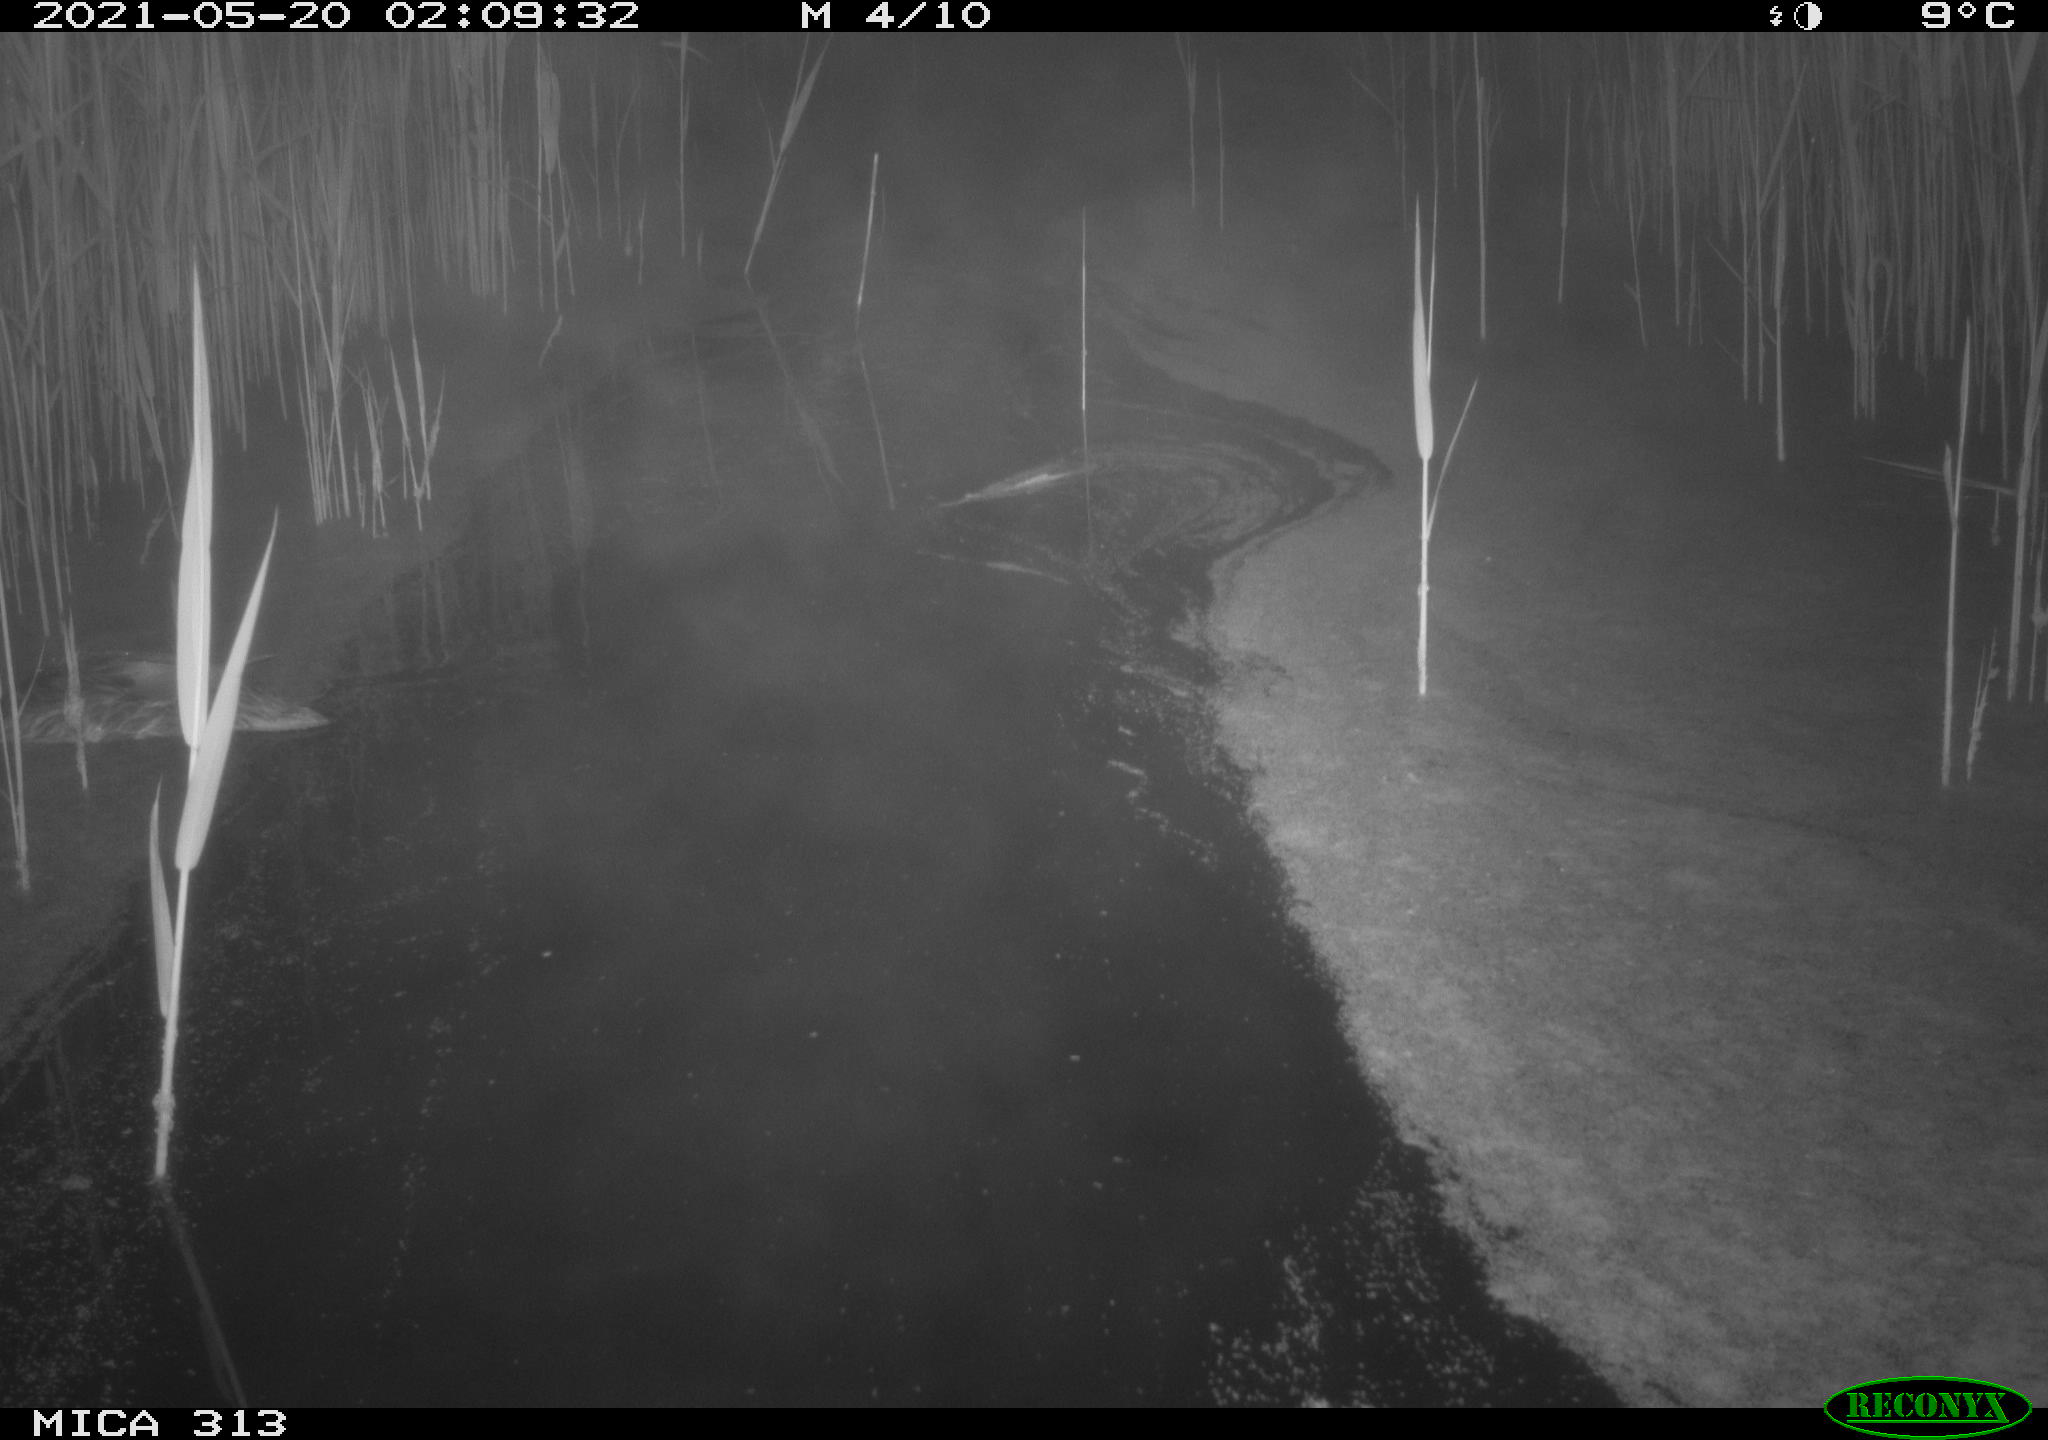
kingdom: Animalia
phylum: Chordata
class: Aves
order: Anseriformes
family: Anatidae
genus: Anas
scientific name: Anas platyrhynchos
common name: Mallard
